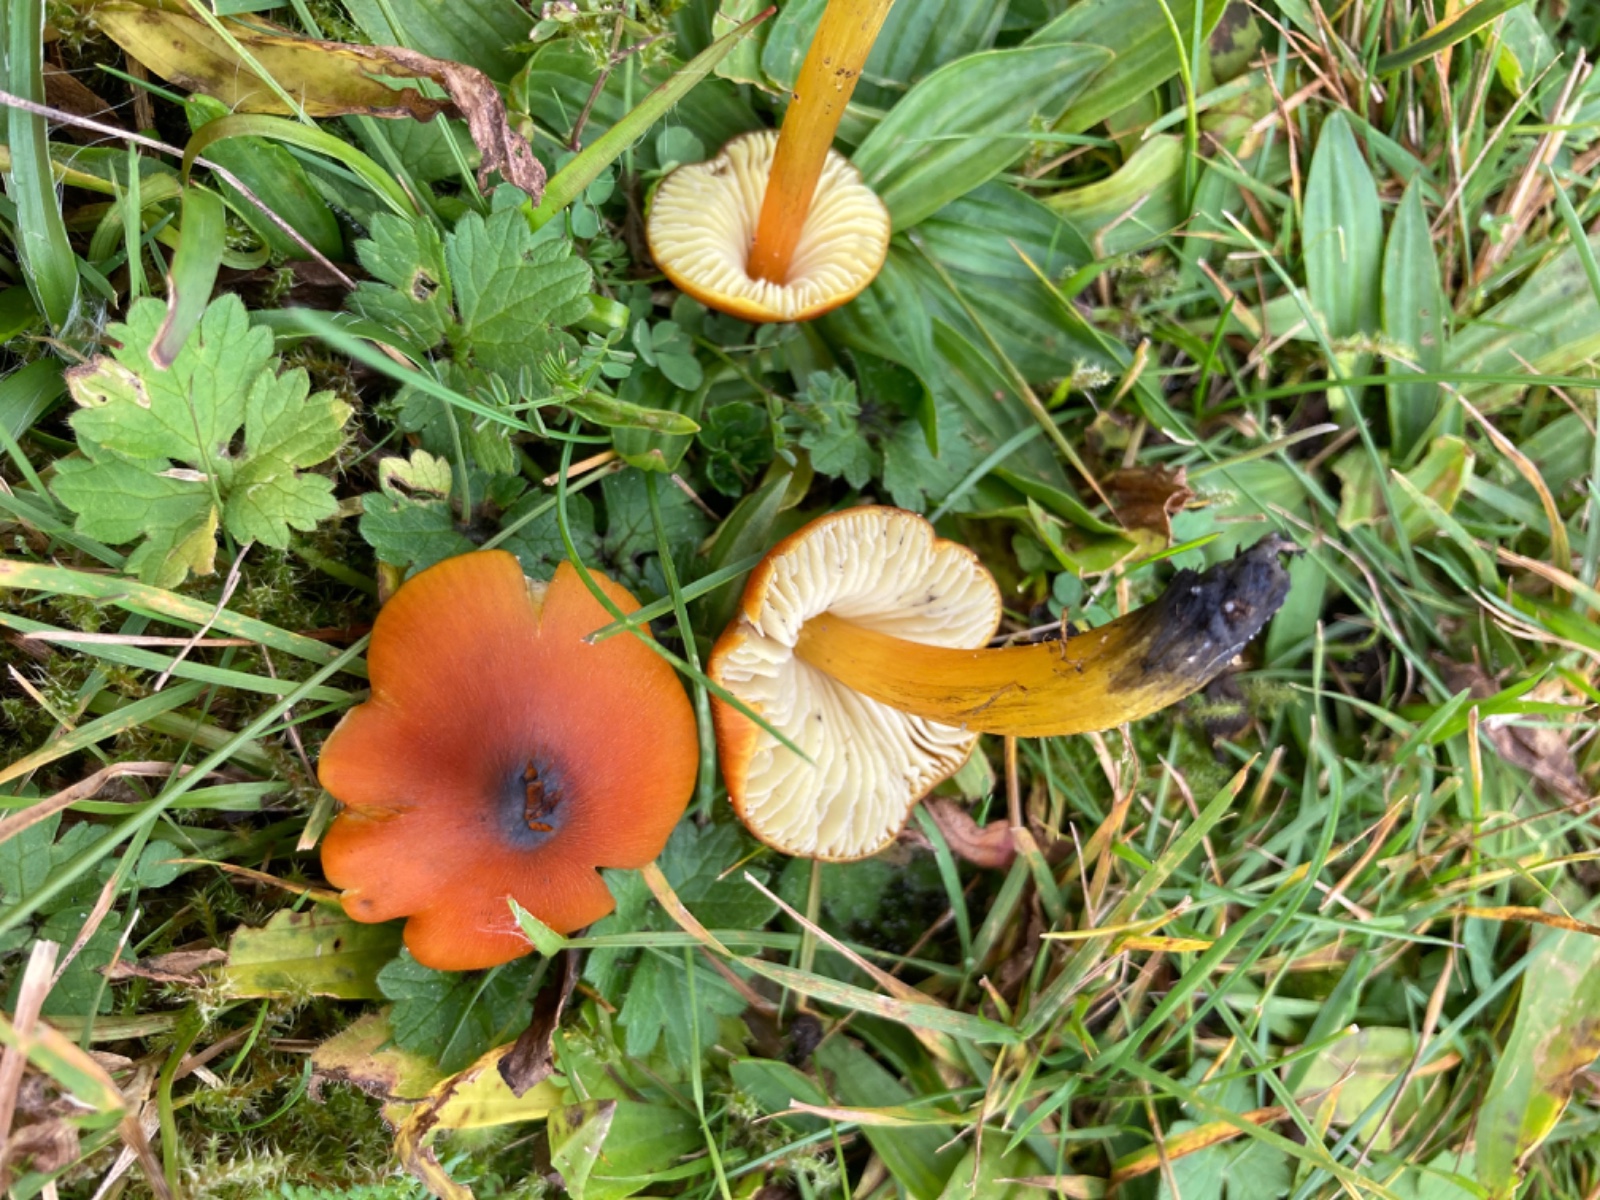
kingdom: Fungi
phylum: Basidiomycota
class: Agaricomycetes
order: Agaricales
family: Hygrophoraceae
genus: Hygrocybe
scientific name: Hygrocybe conica
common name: kegle-vokshat
